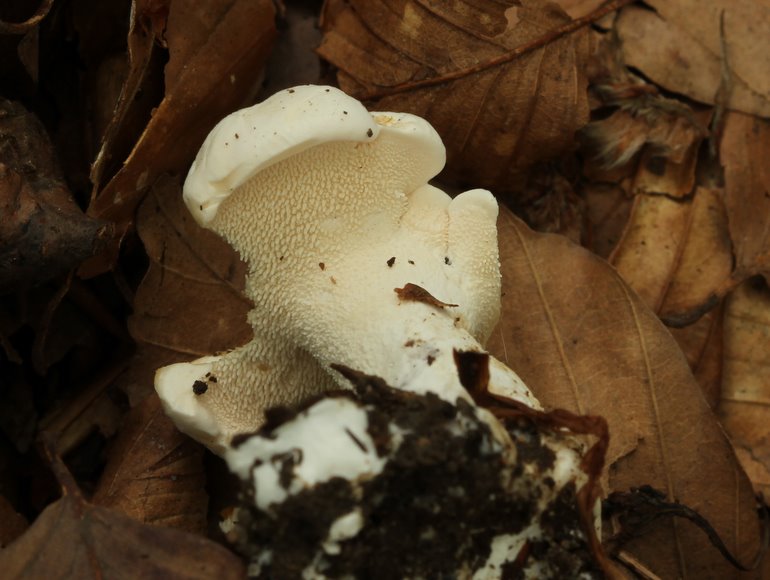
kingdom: Fungi
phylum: Basidiomycota
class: Agaricomycetes
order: Cantharellales
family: Hydnaceae
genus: Hydnum
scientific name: Hydnum repandum
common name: hvid pigsvamp
